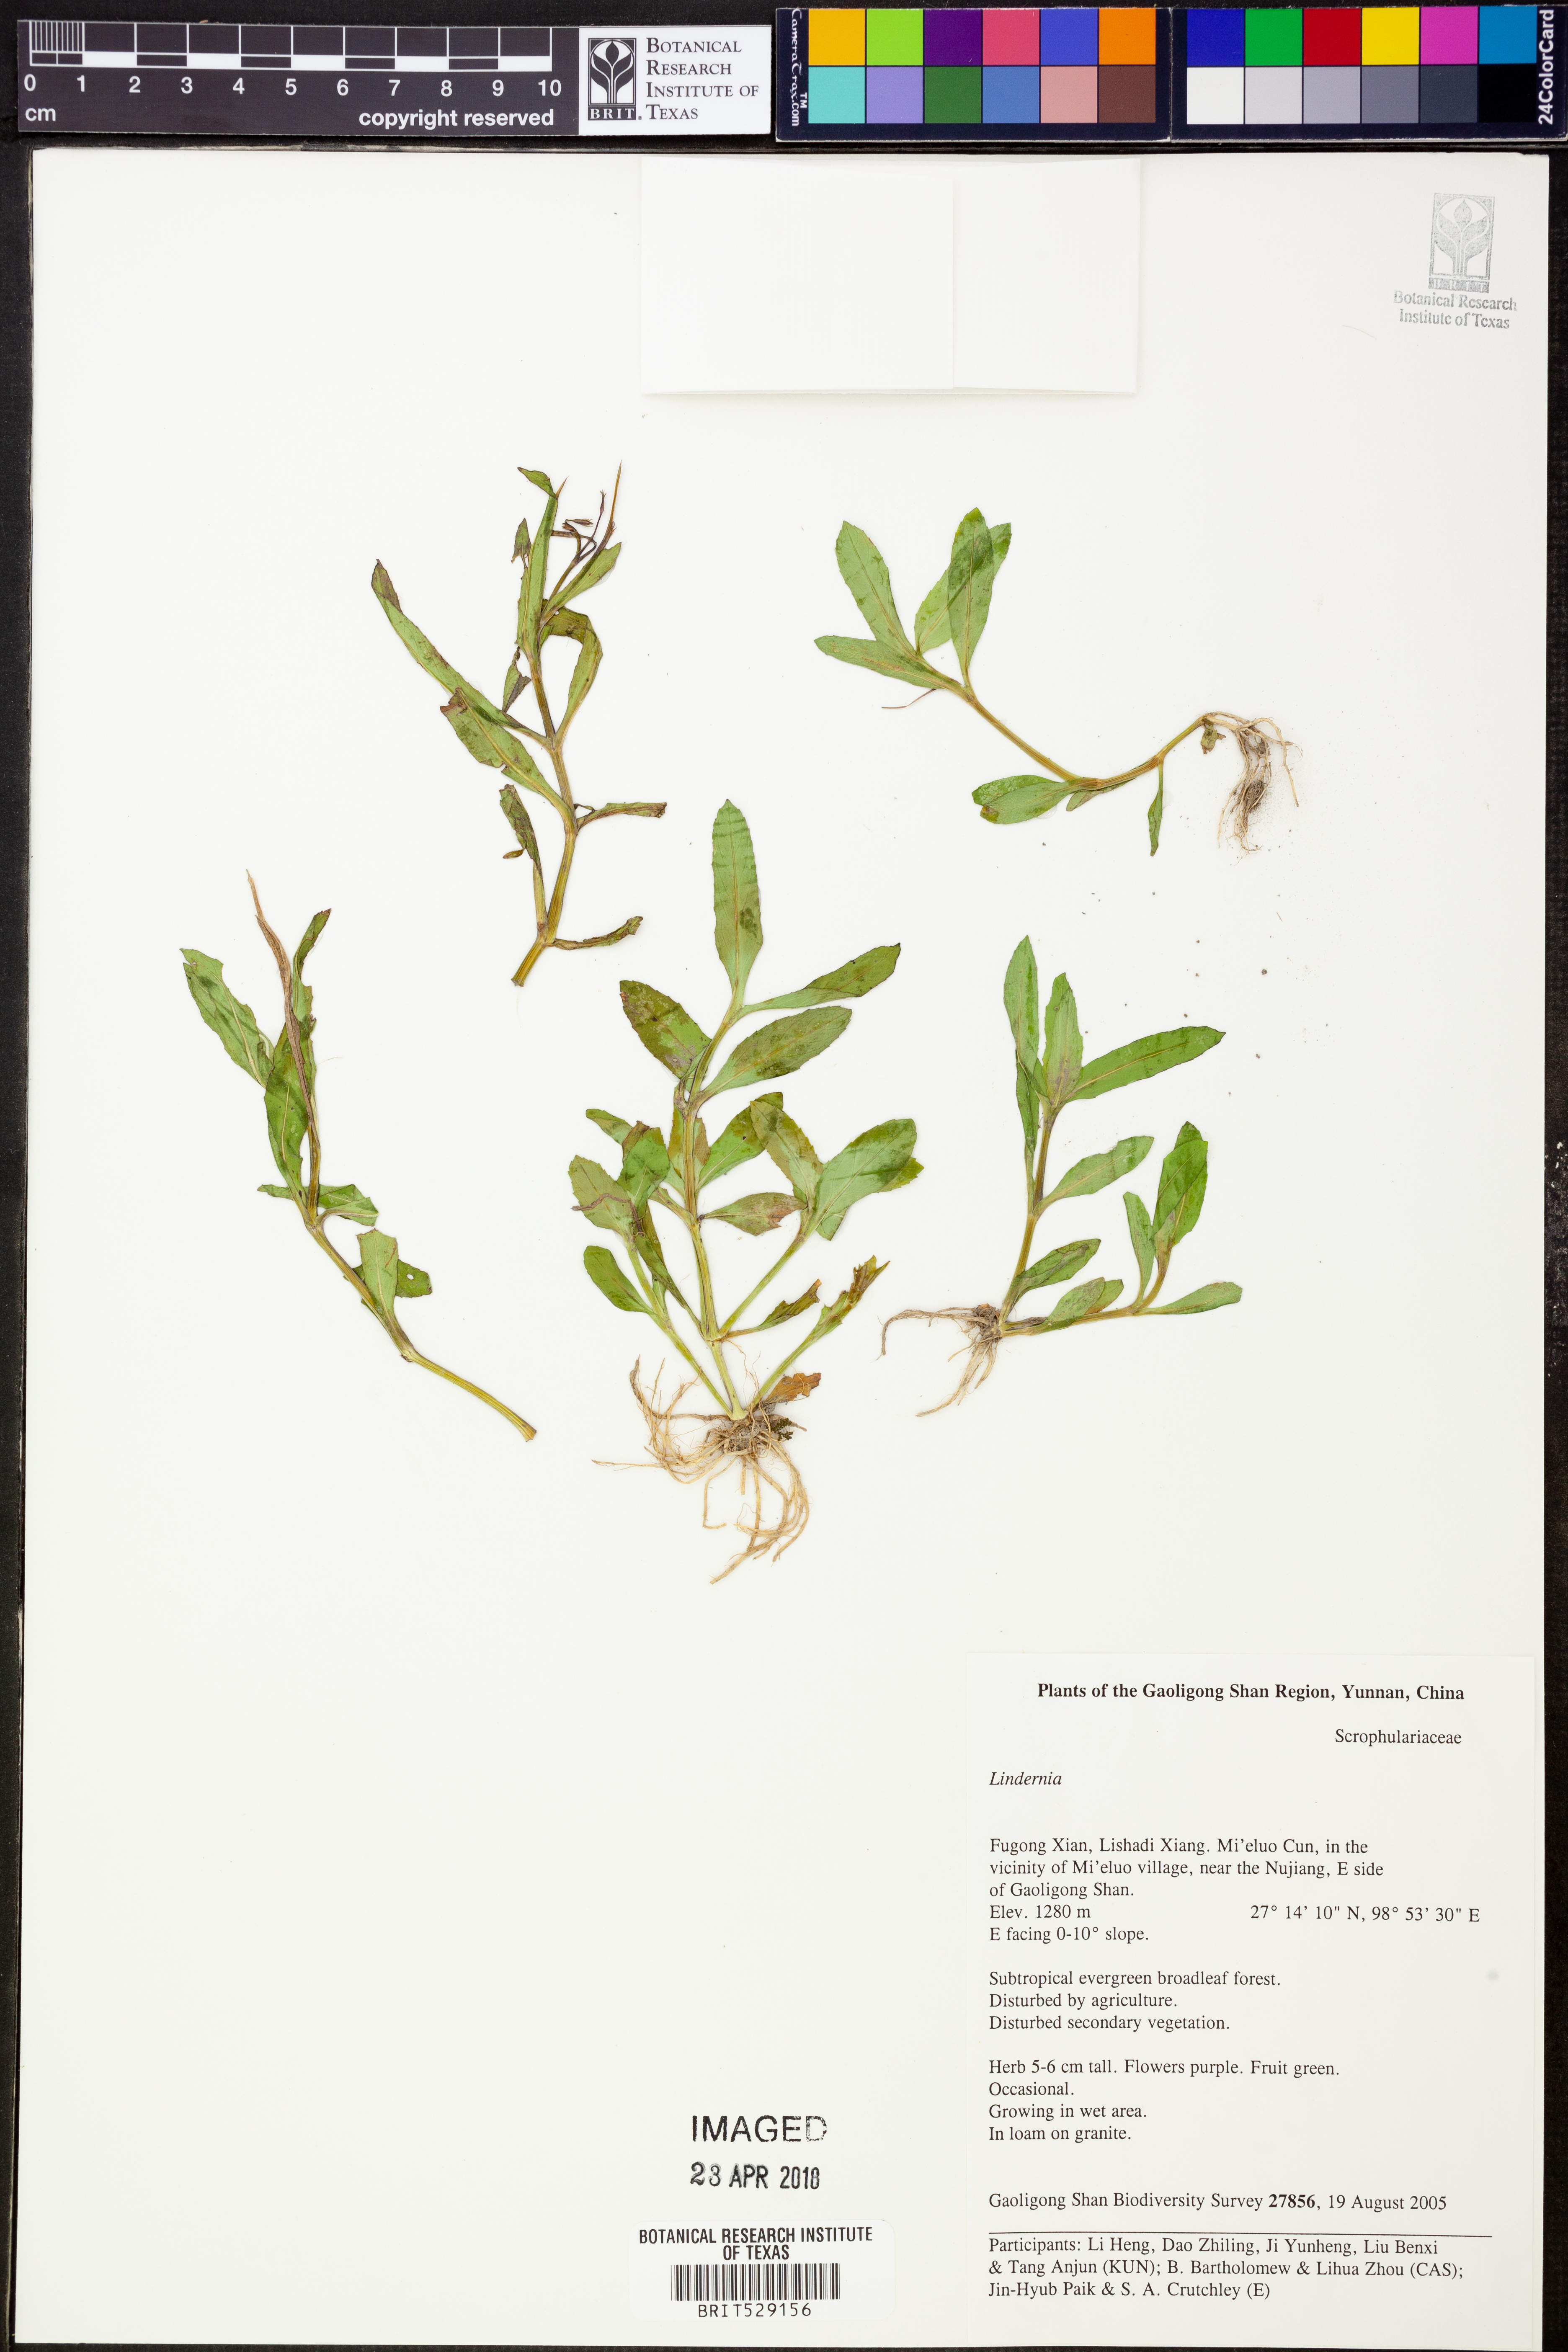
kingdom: Plantae
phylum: Tracheophyta
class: Magnoliopsida
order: Lamiales
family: Linderniaceae
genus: Lindernia
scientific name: Lindernia
